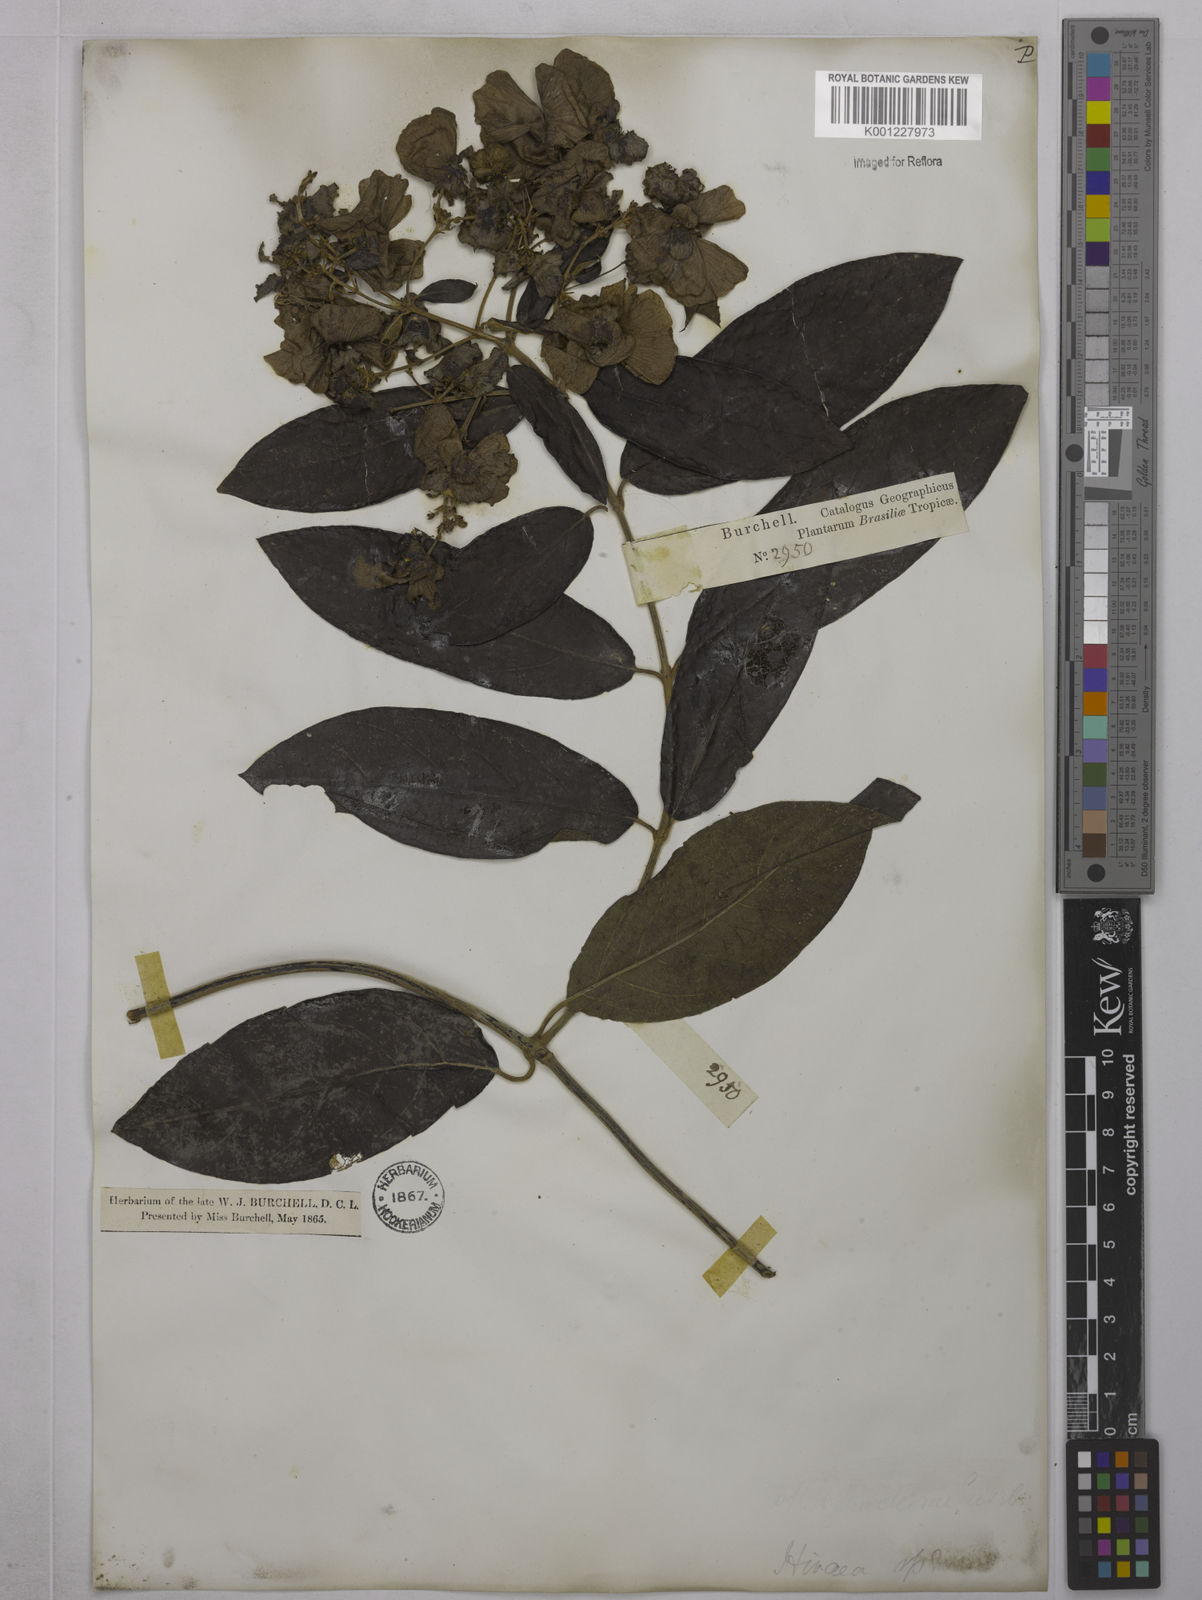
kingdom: Plantae
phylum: Tracheophyta
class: Magnoliopsida
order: Malpighiales
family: Malpighiaceae
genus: Alicia
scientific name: Alicia anisopetala
